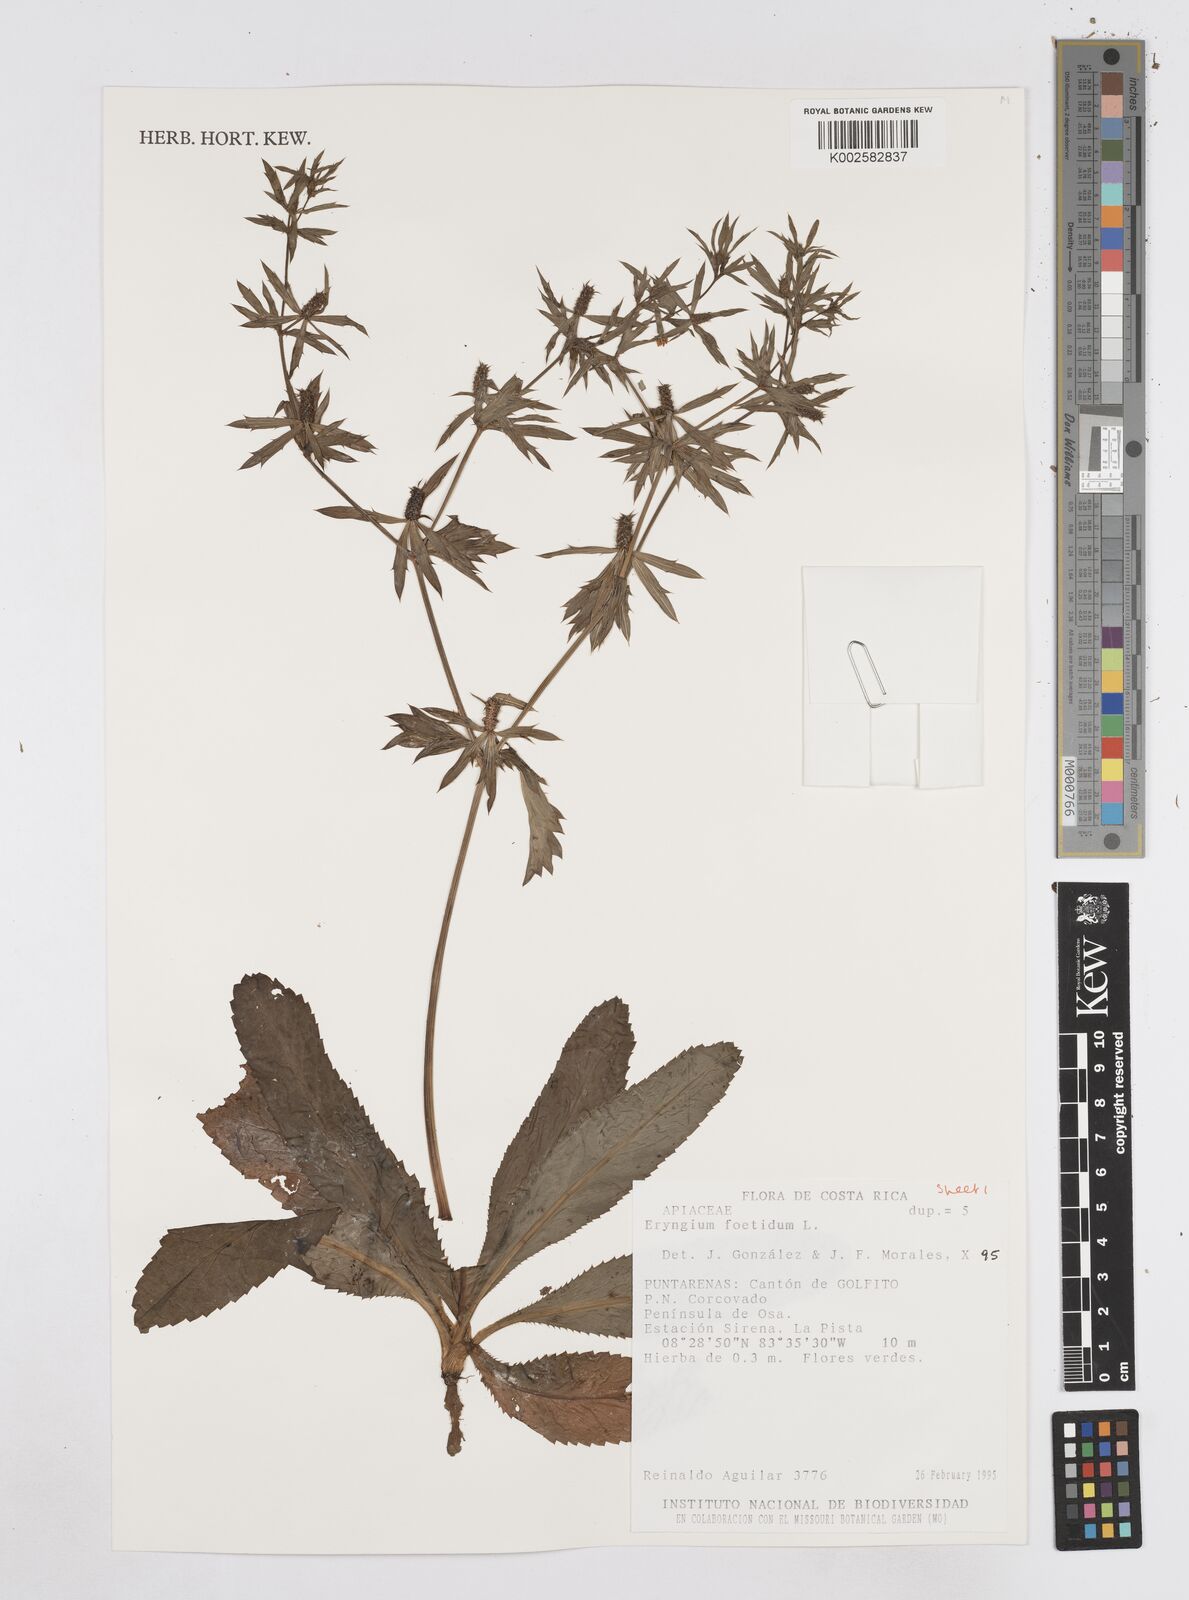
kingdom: Plantae
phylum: Tracheophyta
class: Magnoliopsida
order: Apiales
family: Apiaceae
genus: Eryngium
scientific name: Eryngium foetidum
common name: Fitweed
